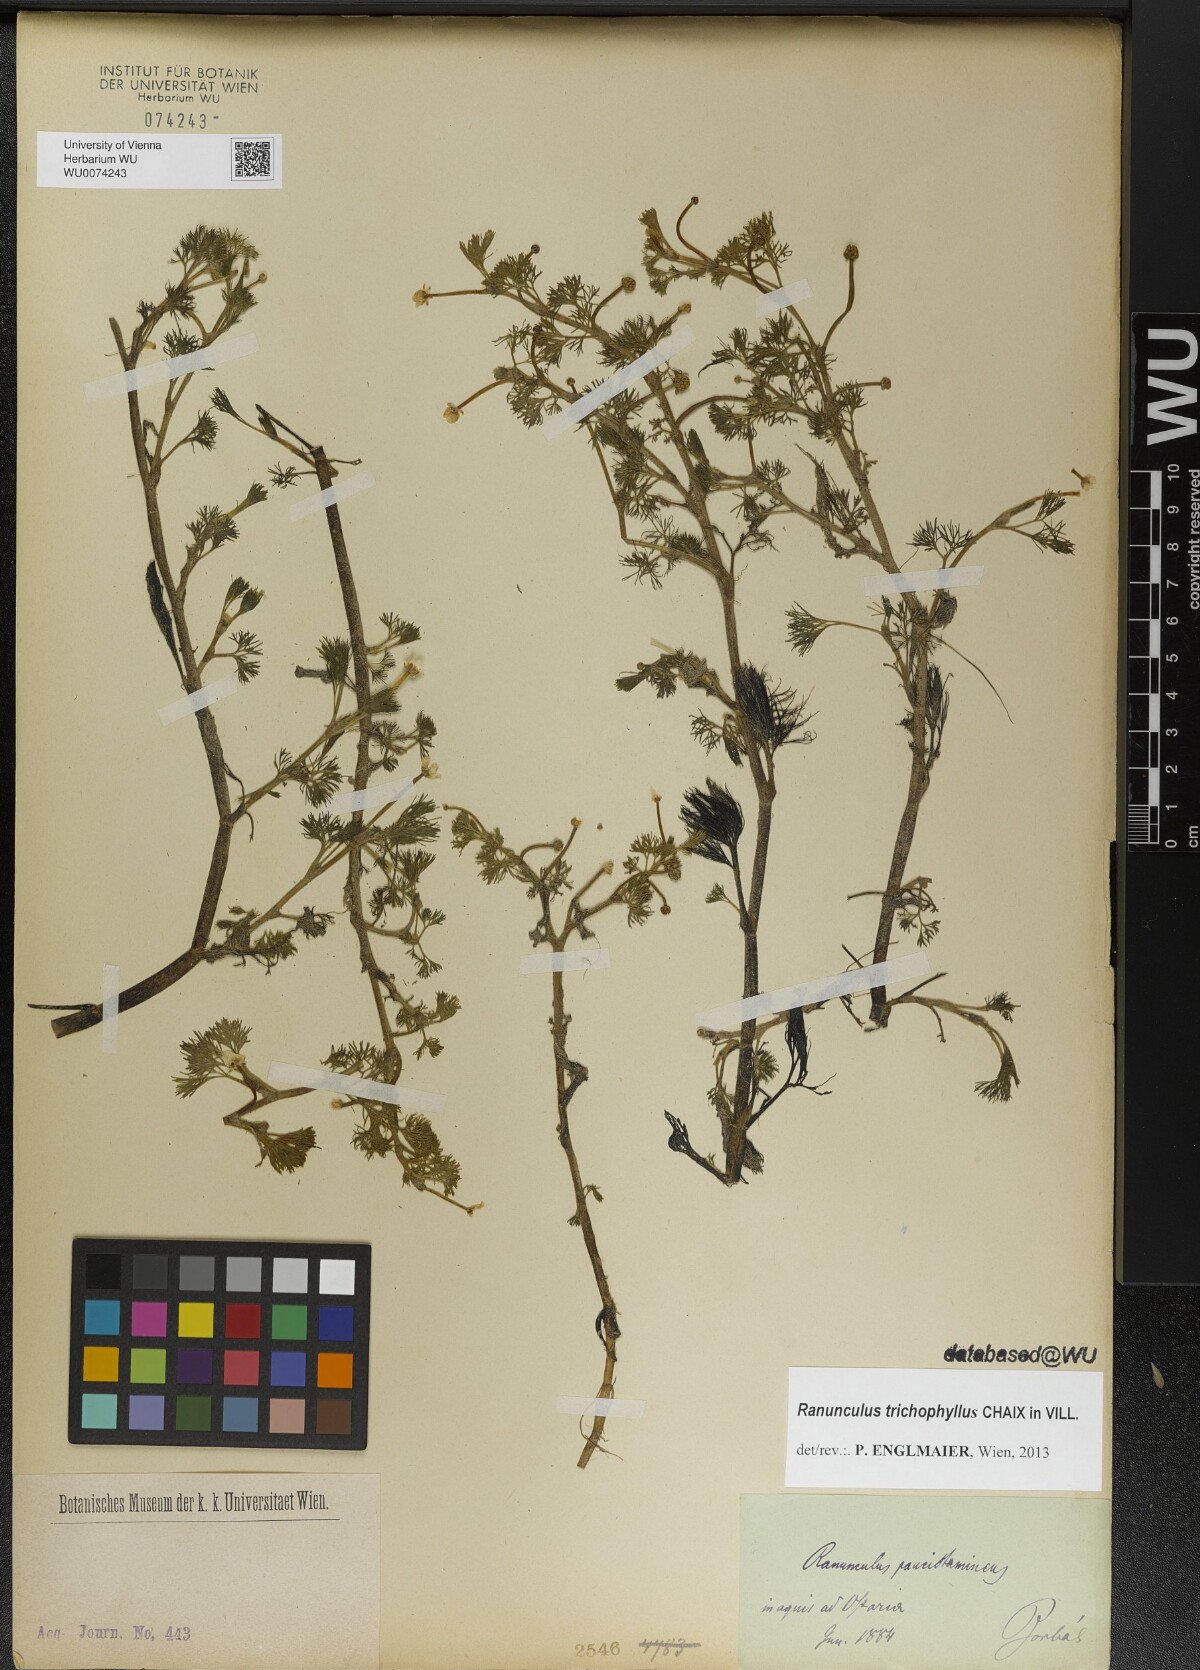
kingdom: Plantae
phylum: Tracheophyta
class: Magnoliopsida
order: Ranunculales
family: Ranunculaceae
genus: Ranunculus
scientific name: Ranunculus trichophyllus
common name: Thread-leaved water-crowfoot
